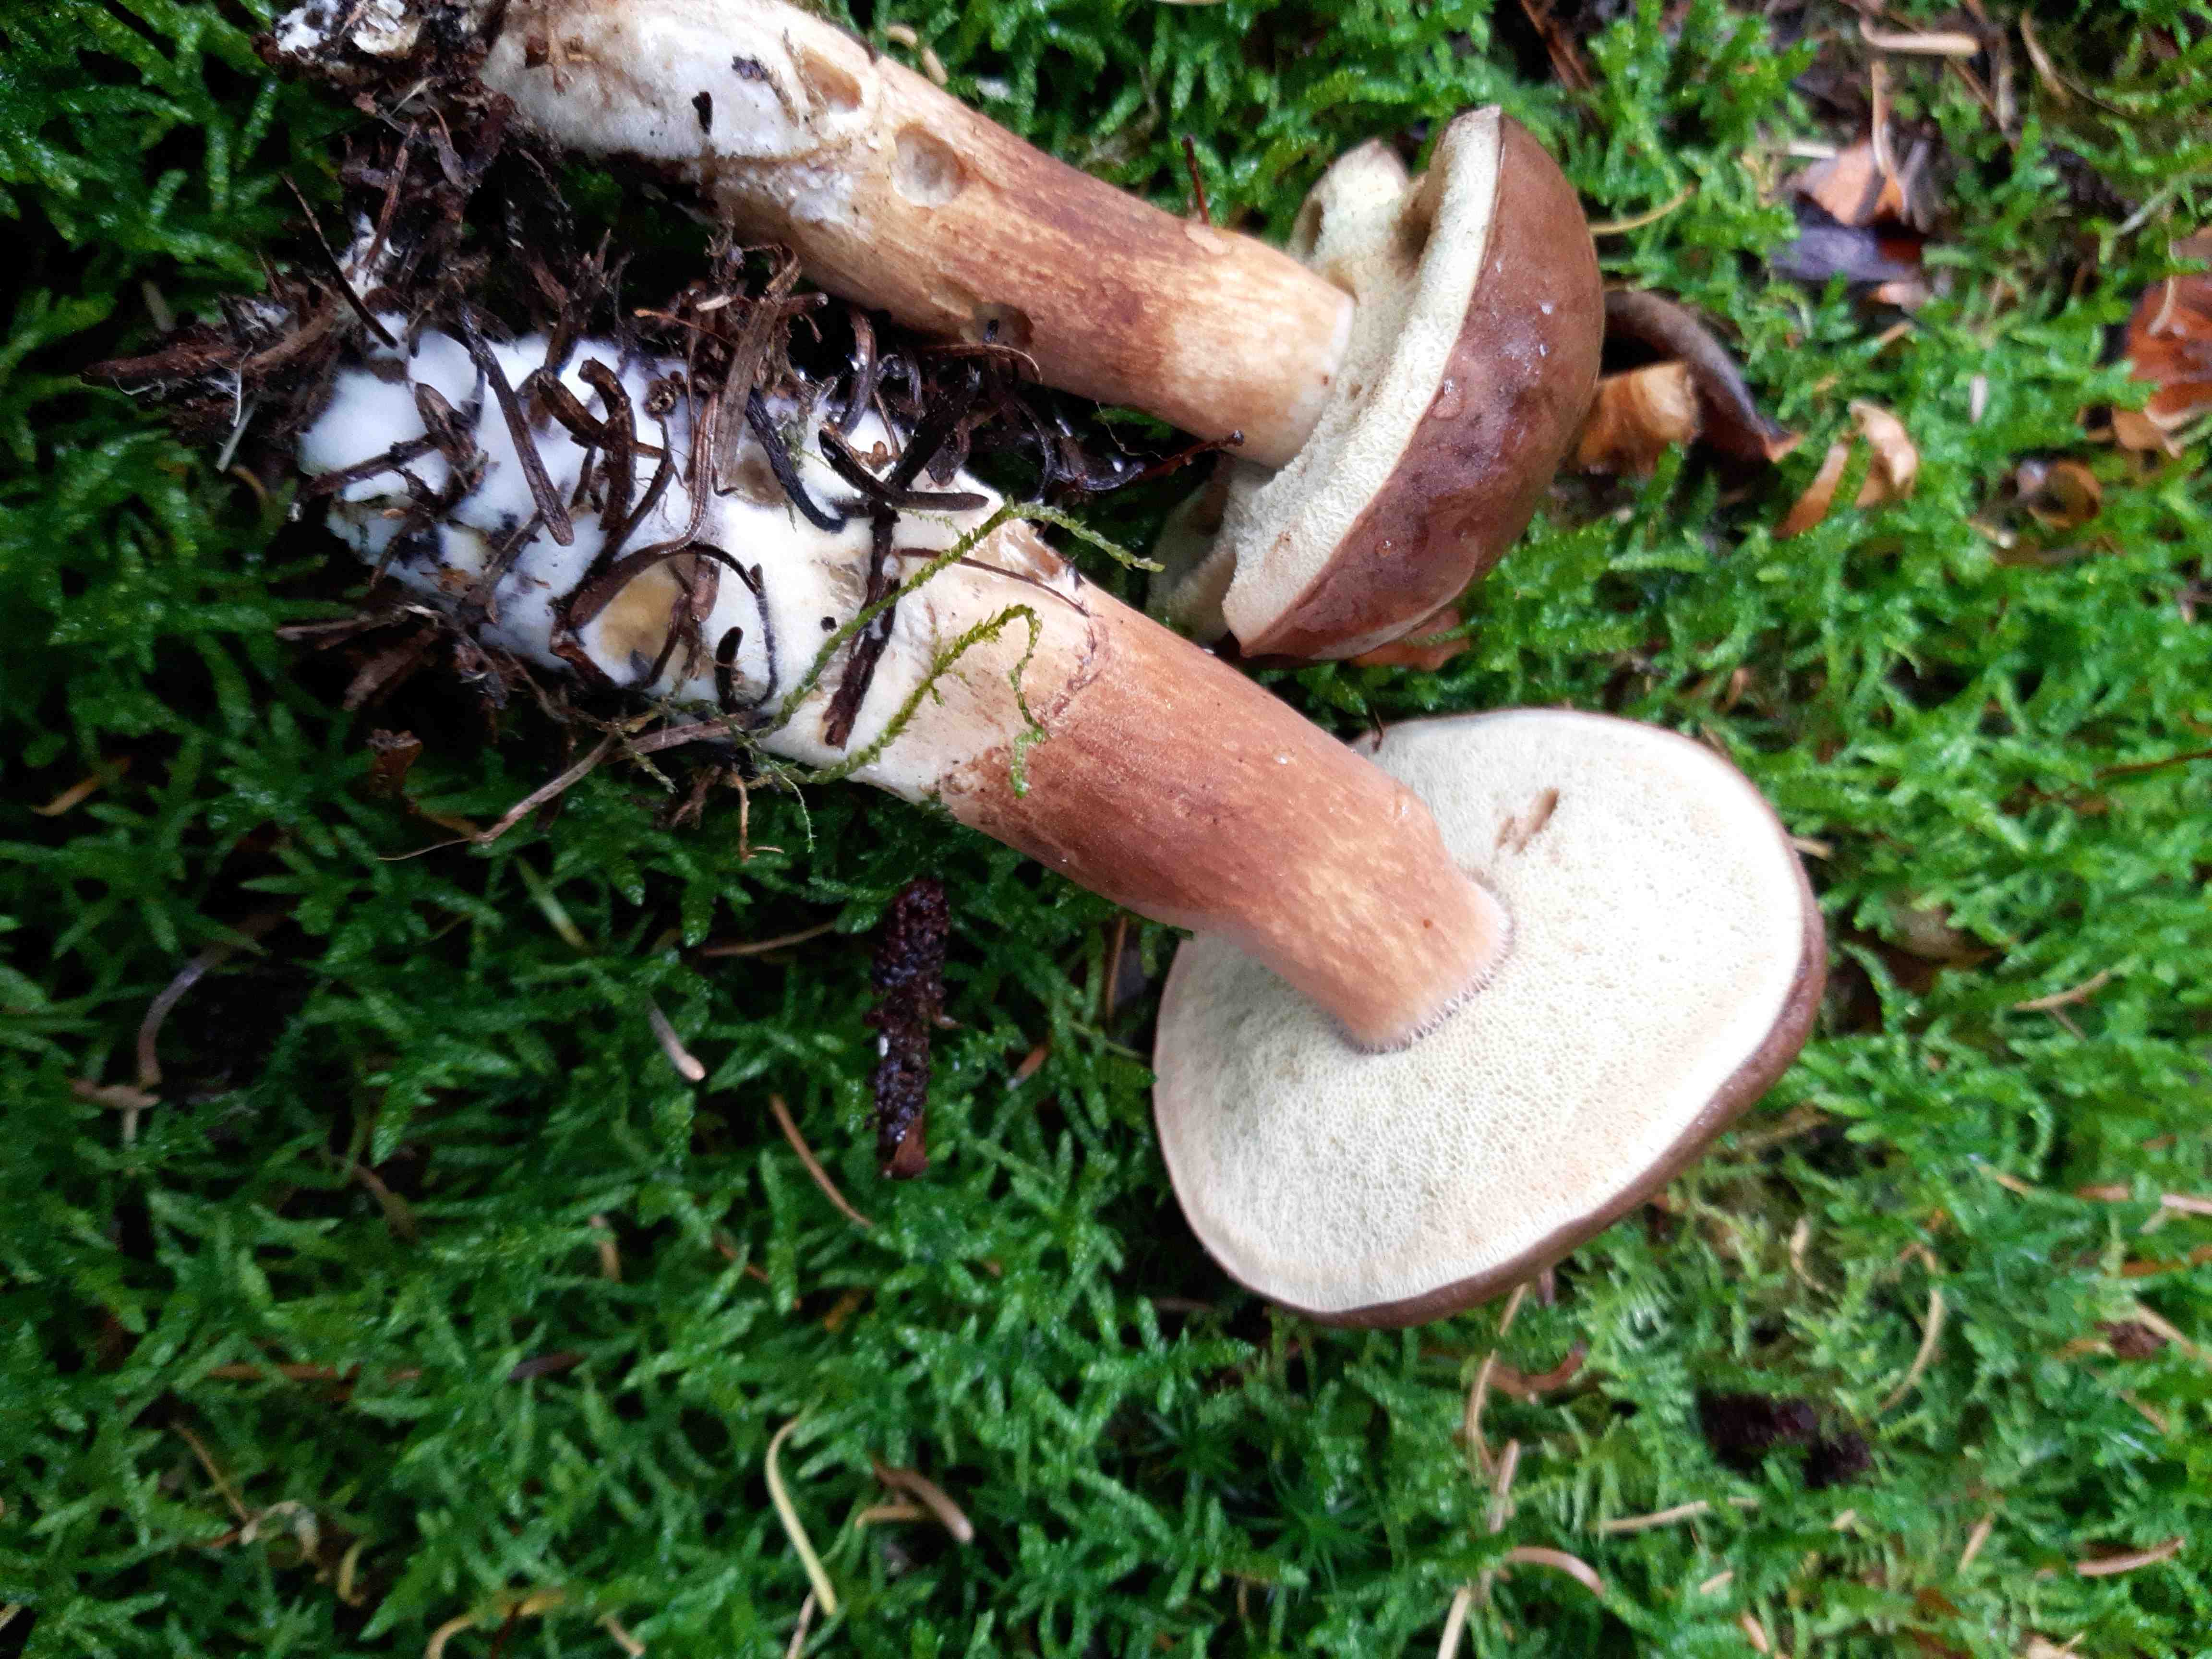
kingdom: Fungi
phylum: Basidiomycota
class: Agaricomycetes
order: Boletales
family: Boletaceae
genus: Imleria
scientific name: Imleria badia
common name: brunstokket rørhat
